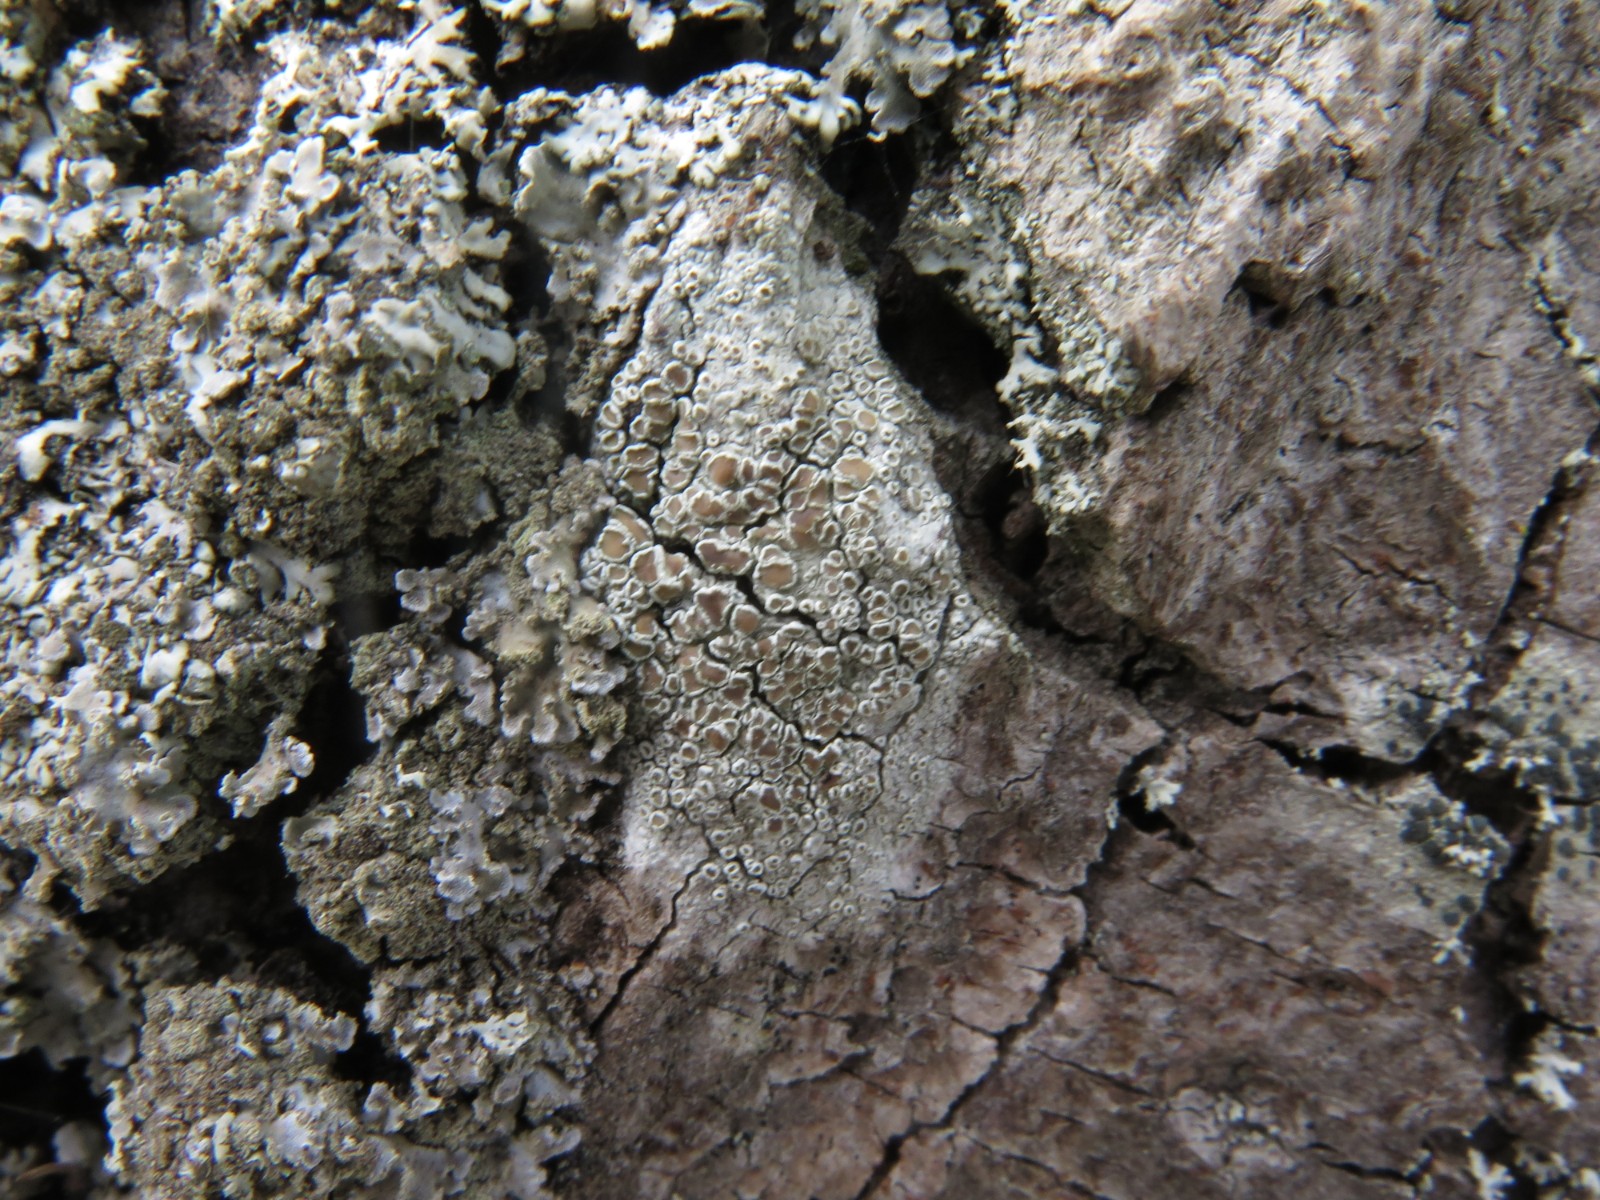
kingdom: Fungi
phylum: Ascomycota
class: Lecanoromycetes
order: Lecanorales
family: Lecanoraceae
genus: Lecanora
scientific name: Lecanora chlarotera
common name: brun kantskivelav
